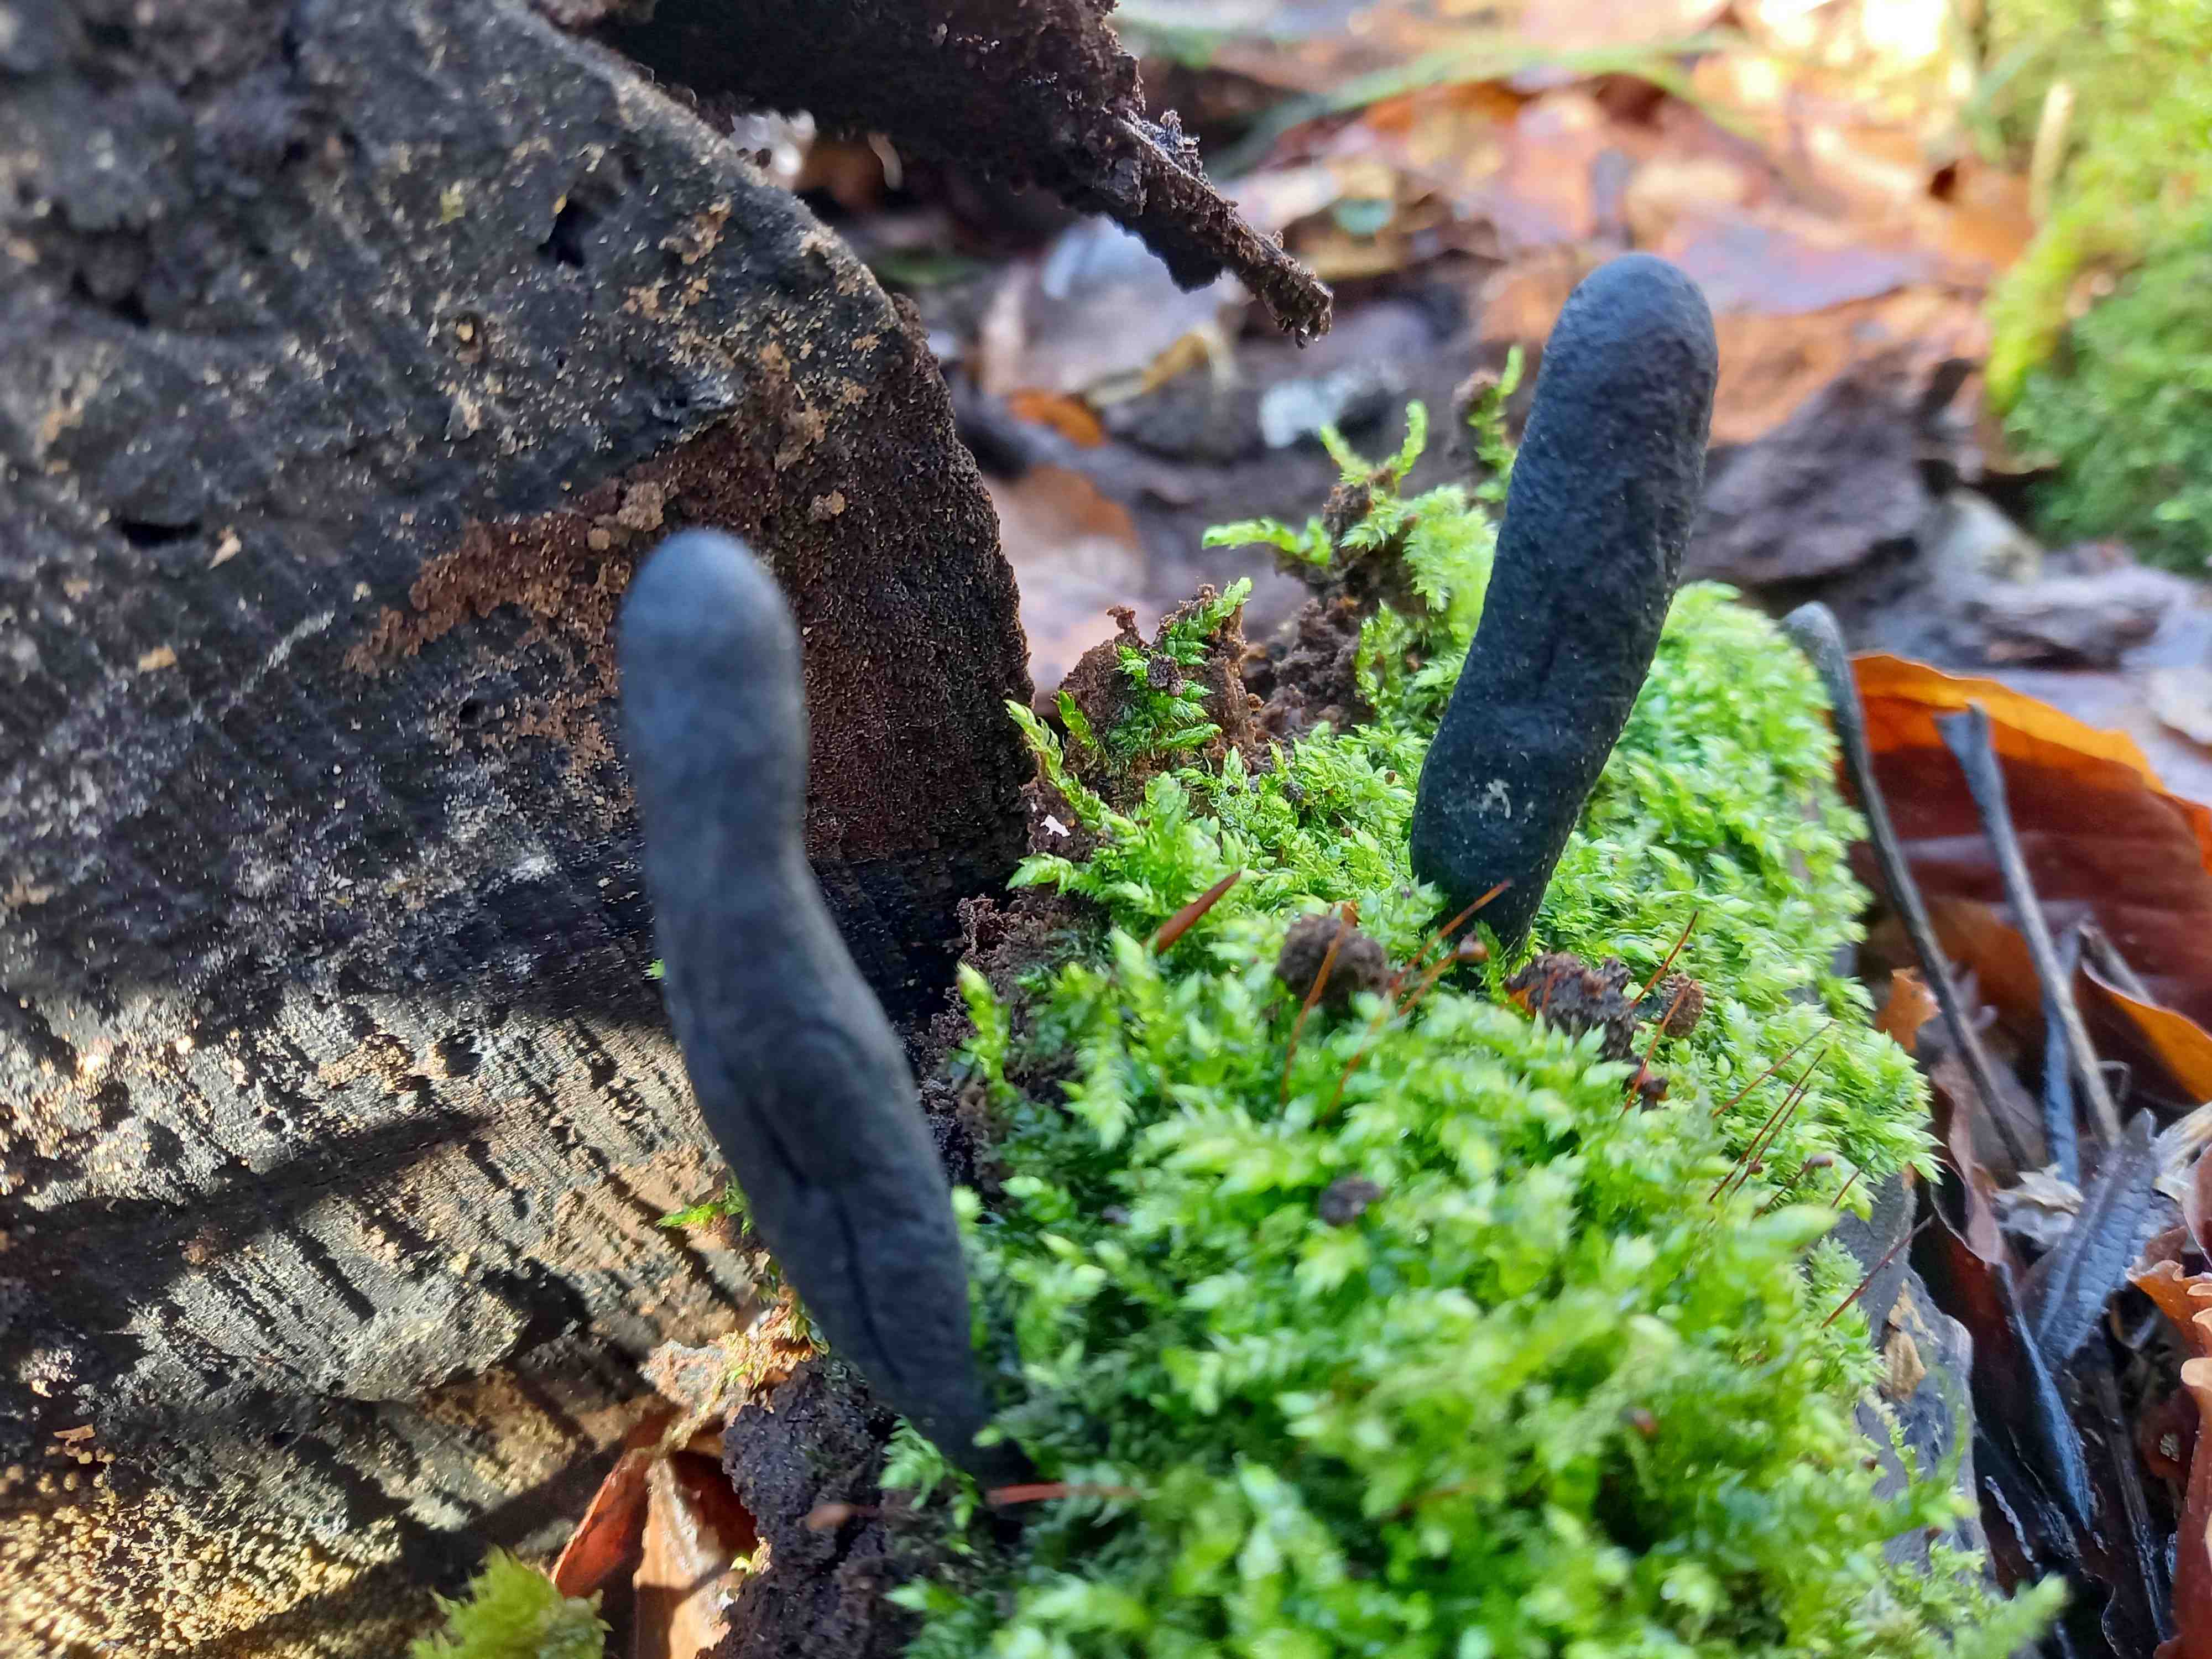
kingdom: Fungi
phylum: Ascomycota
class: Sordariomycetes
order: Xylariales
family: Xylariaceae
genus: Xylaria
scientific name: Xylaria longipes
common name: slank stødsvamp
